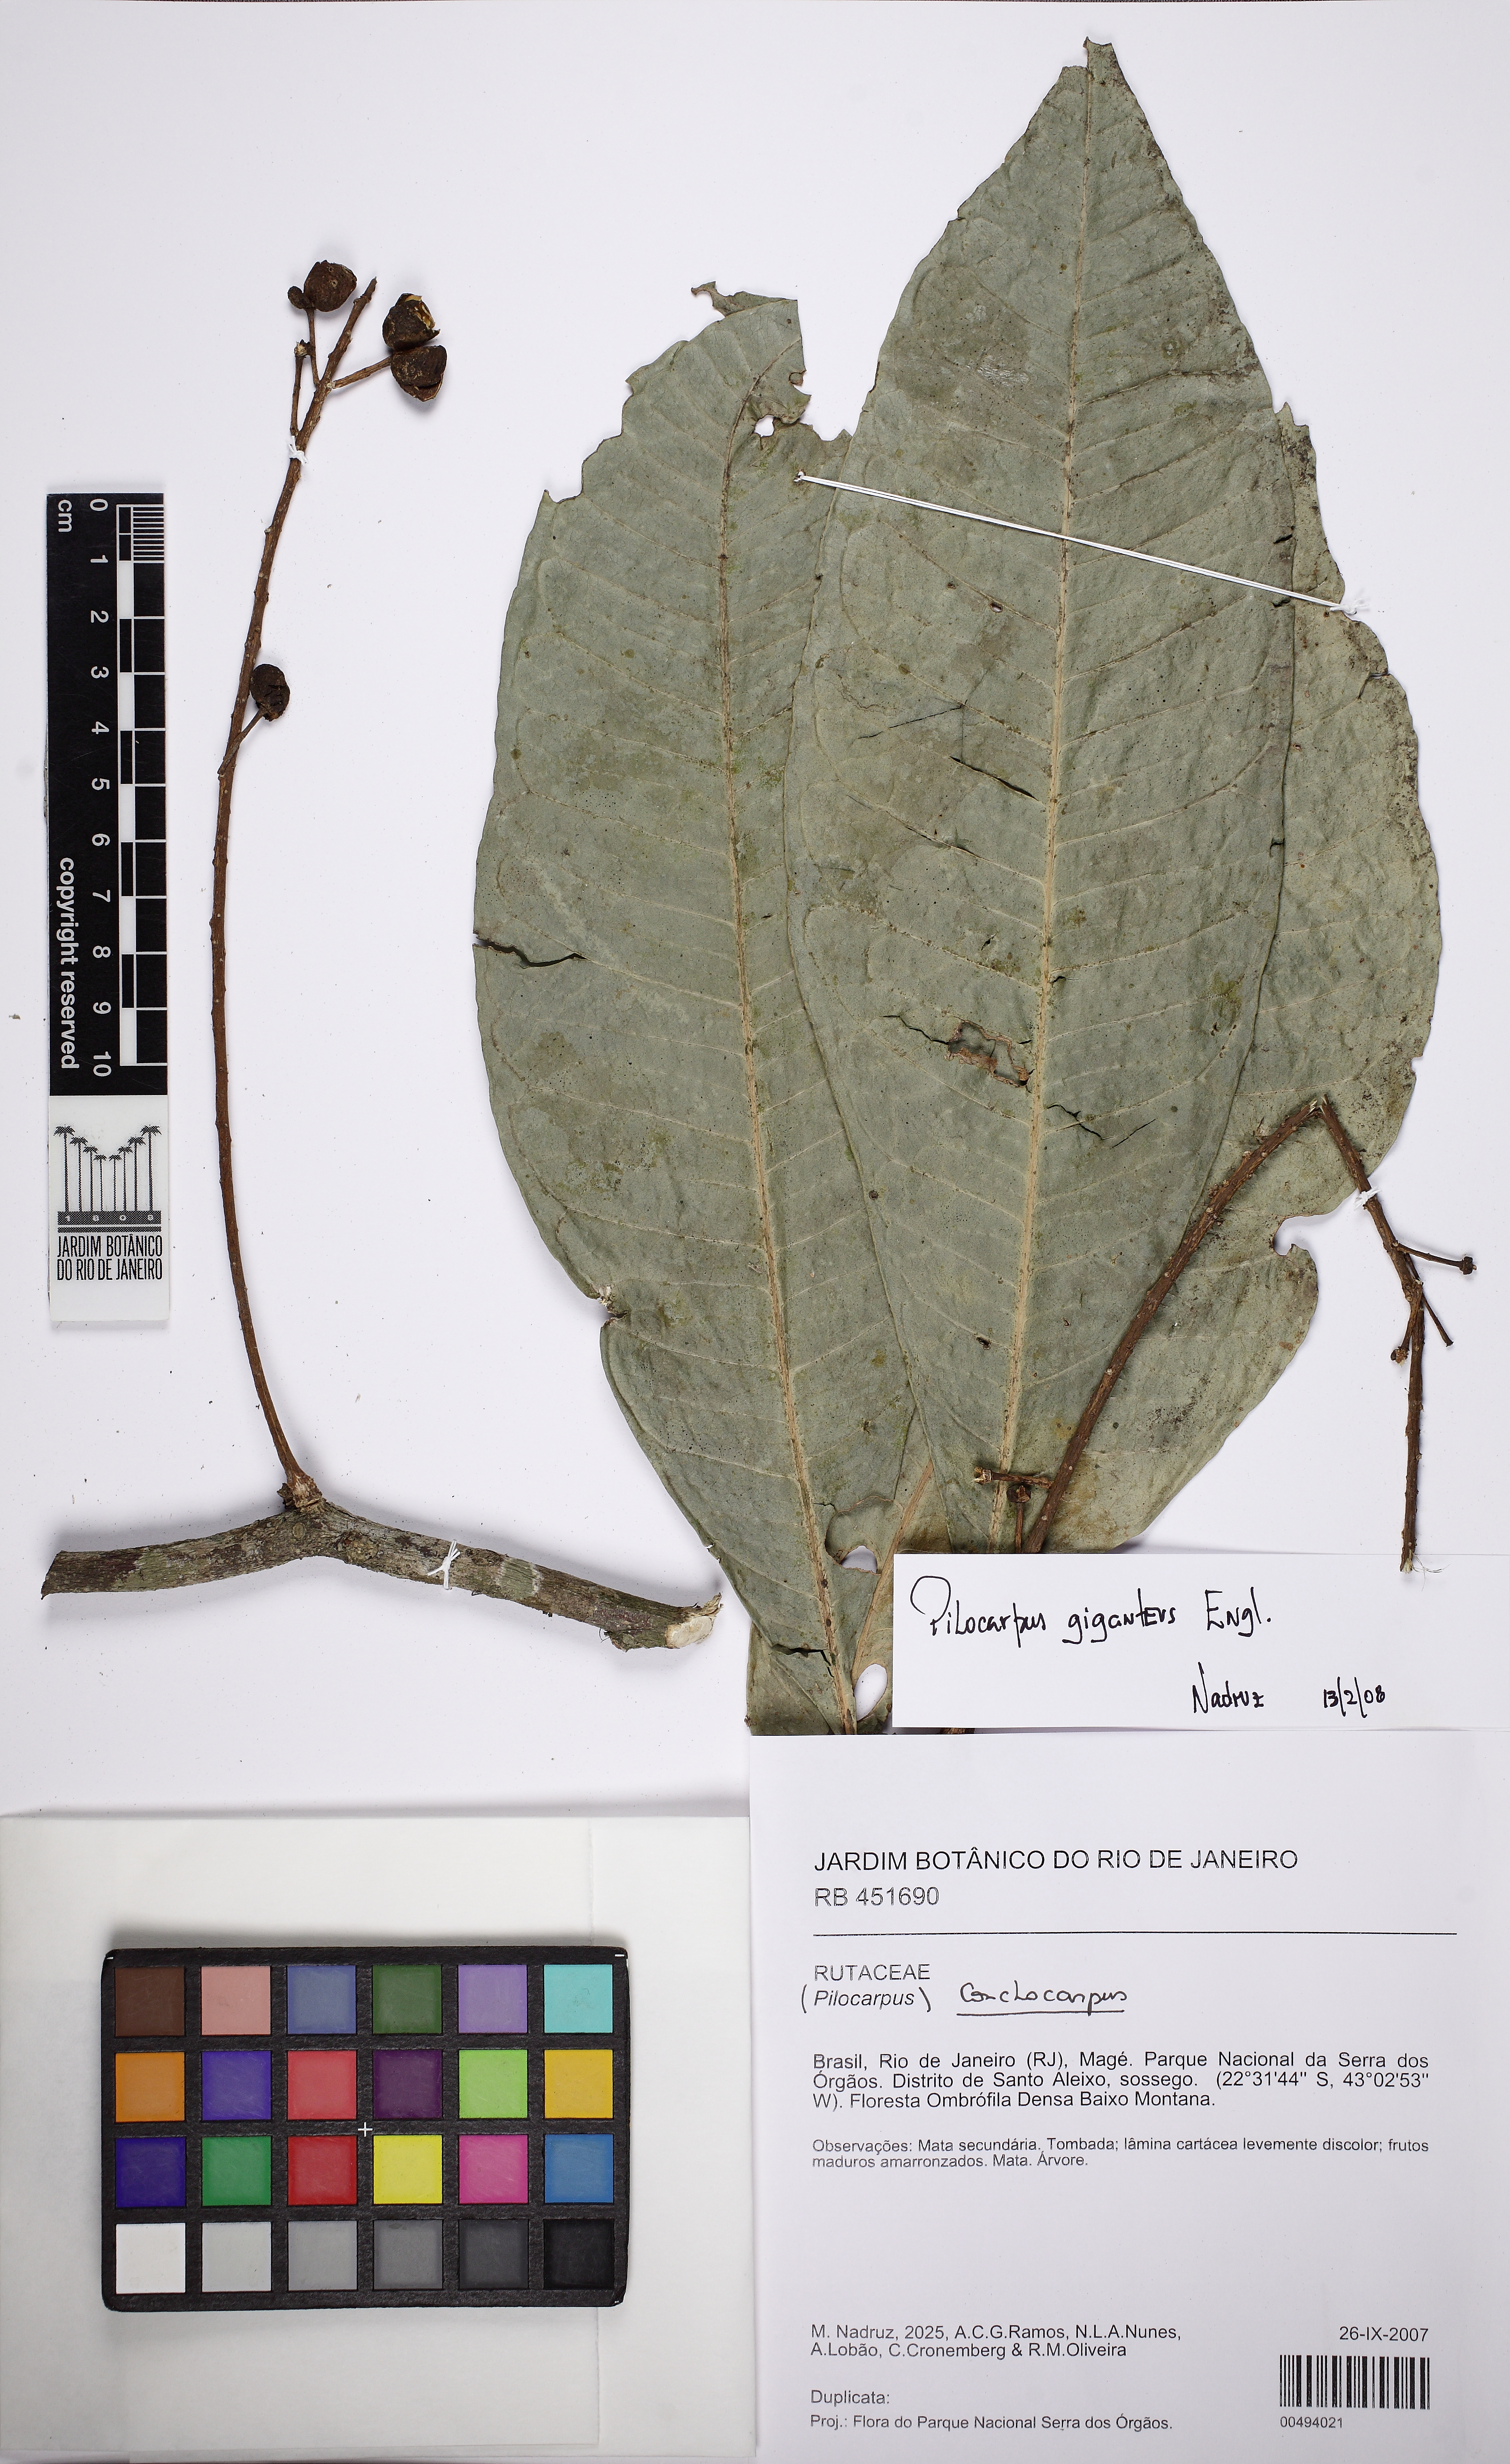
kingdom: Plantae
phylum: Tracheophyta
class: Magnoliopsida
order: Sapindales
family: Rutaceae
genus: Pilocarpus
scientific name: Pilocarpus giganteus
